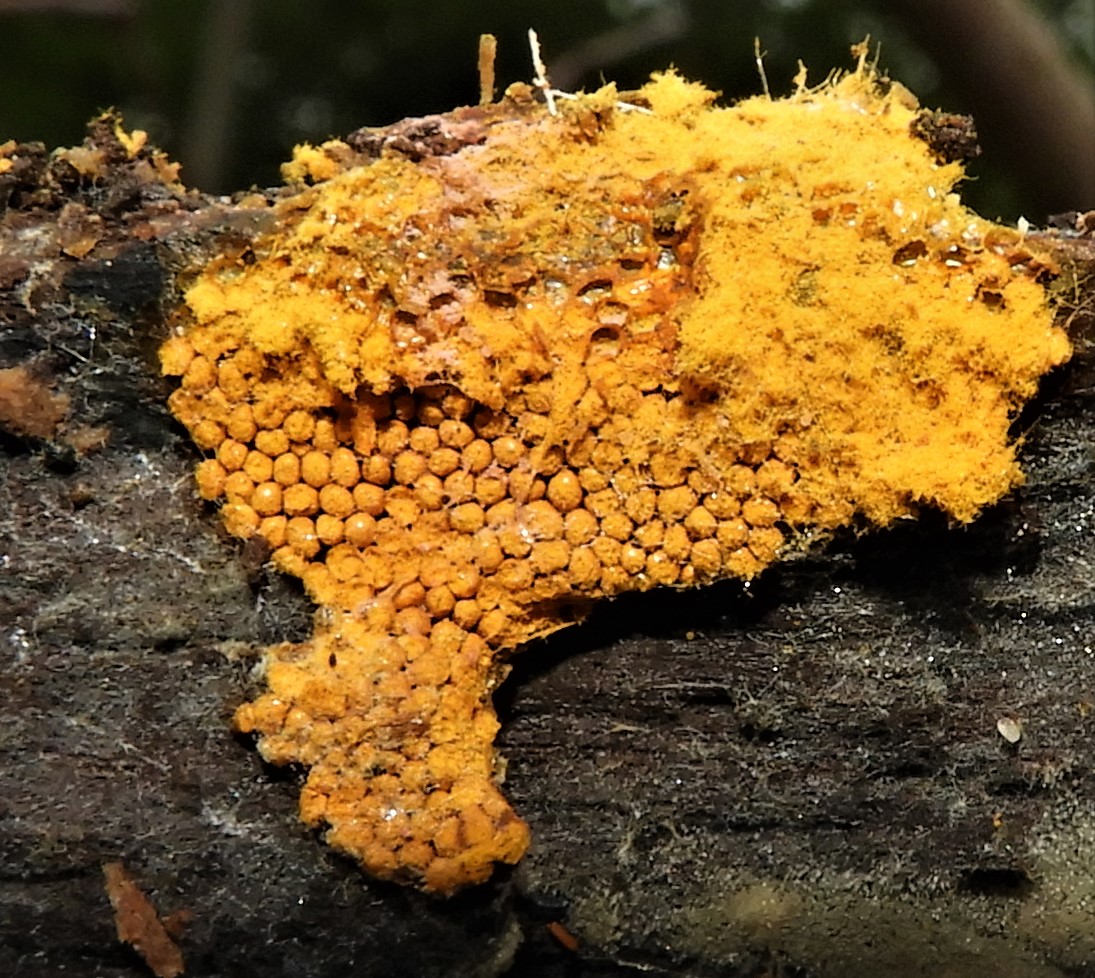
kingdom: Protozoa
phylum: Mycetozoa
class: Myxomycetes
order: Trichiales
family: Trichiaceae
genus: Trichia
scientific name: Trichia
